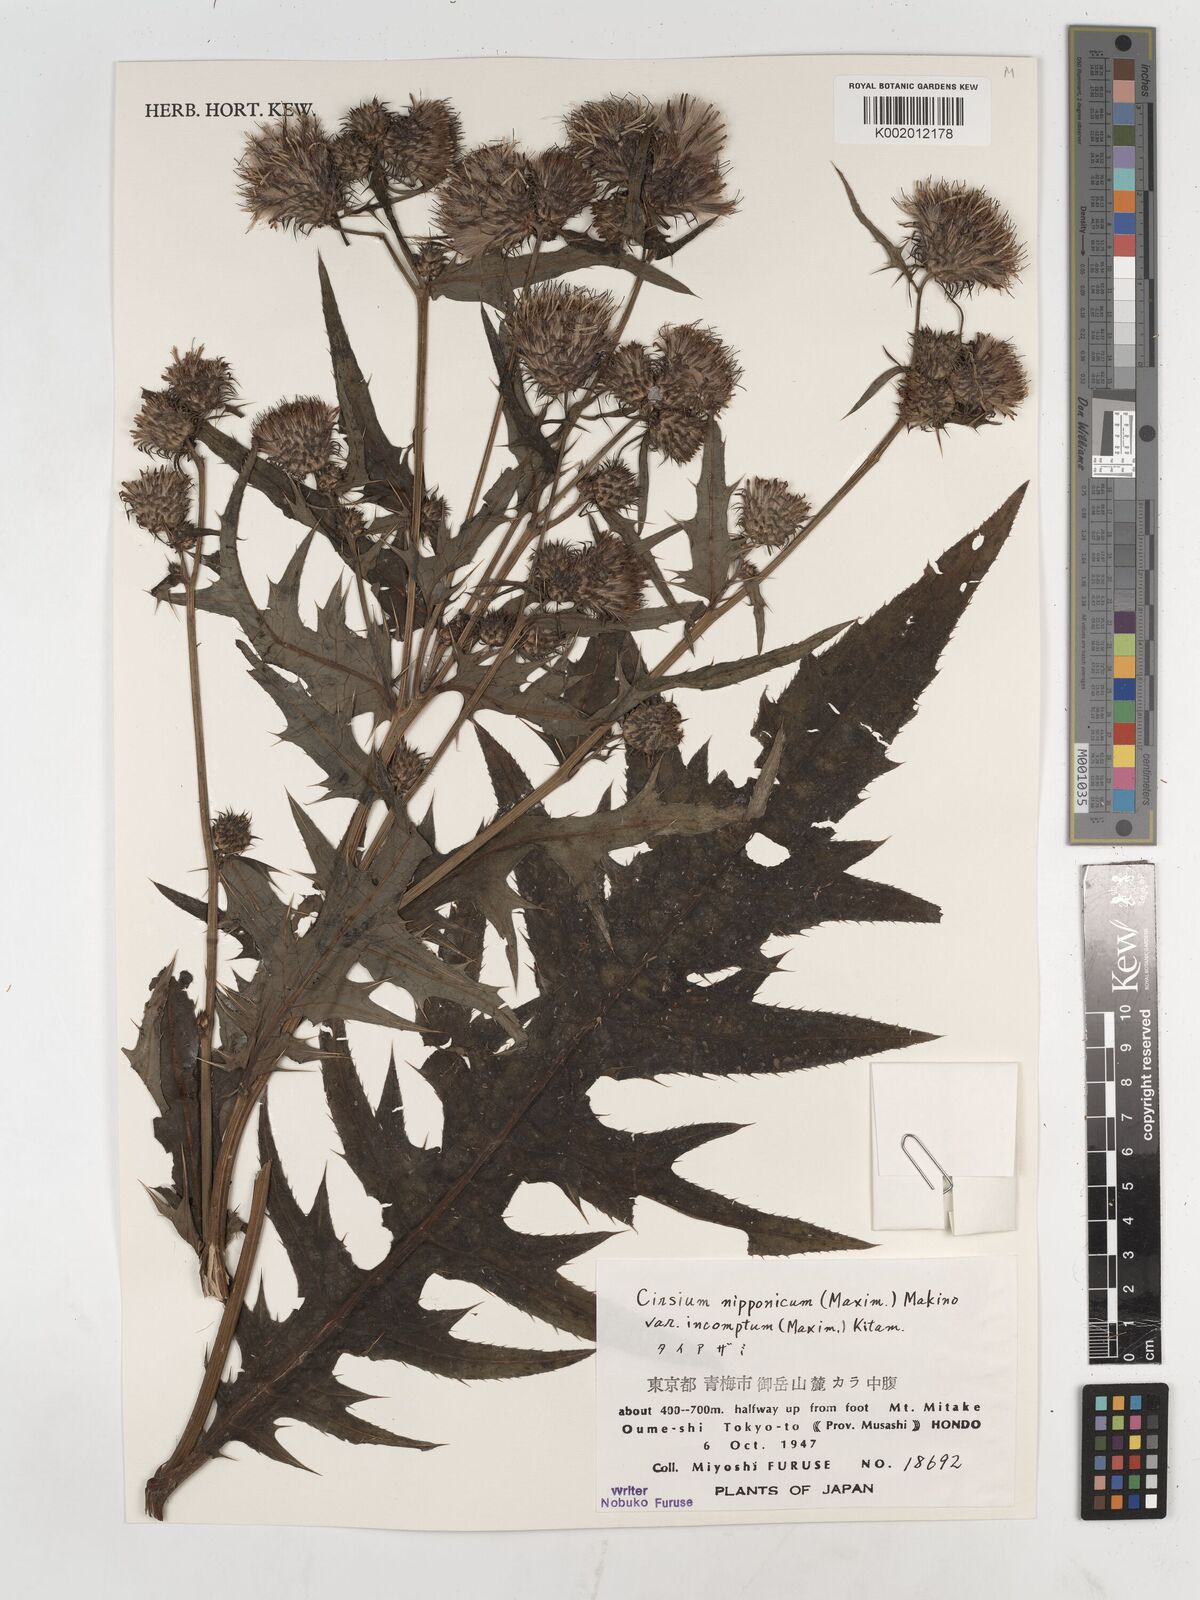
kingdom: Plantae
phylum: Tracheophyta
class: Magnoliopsida
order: Asterales
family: Asteraceae
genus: Cirsium
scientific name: Cirsium nipponicum
